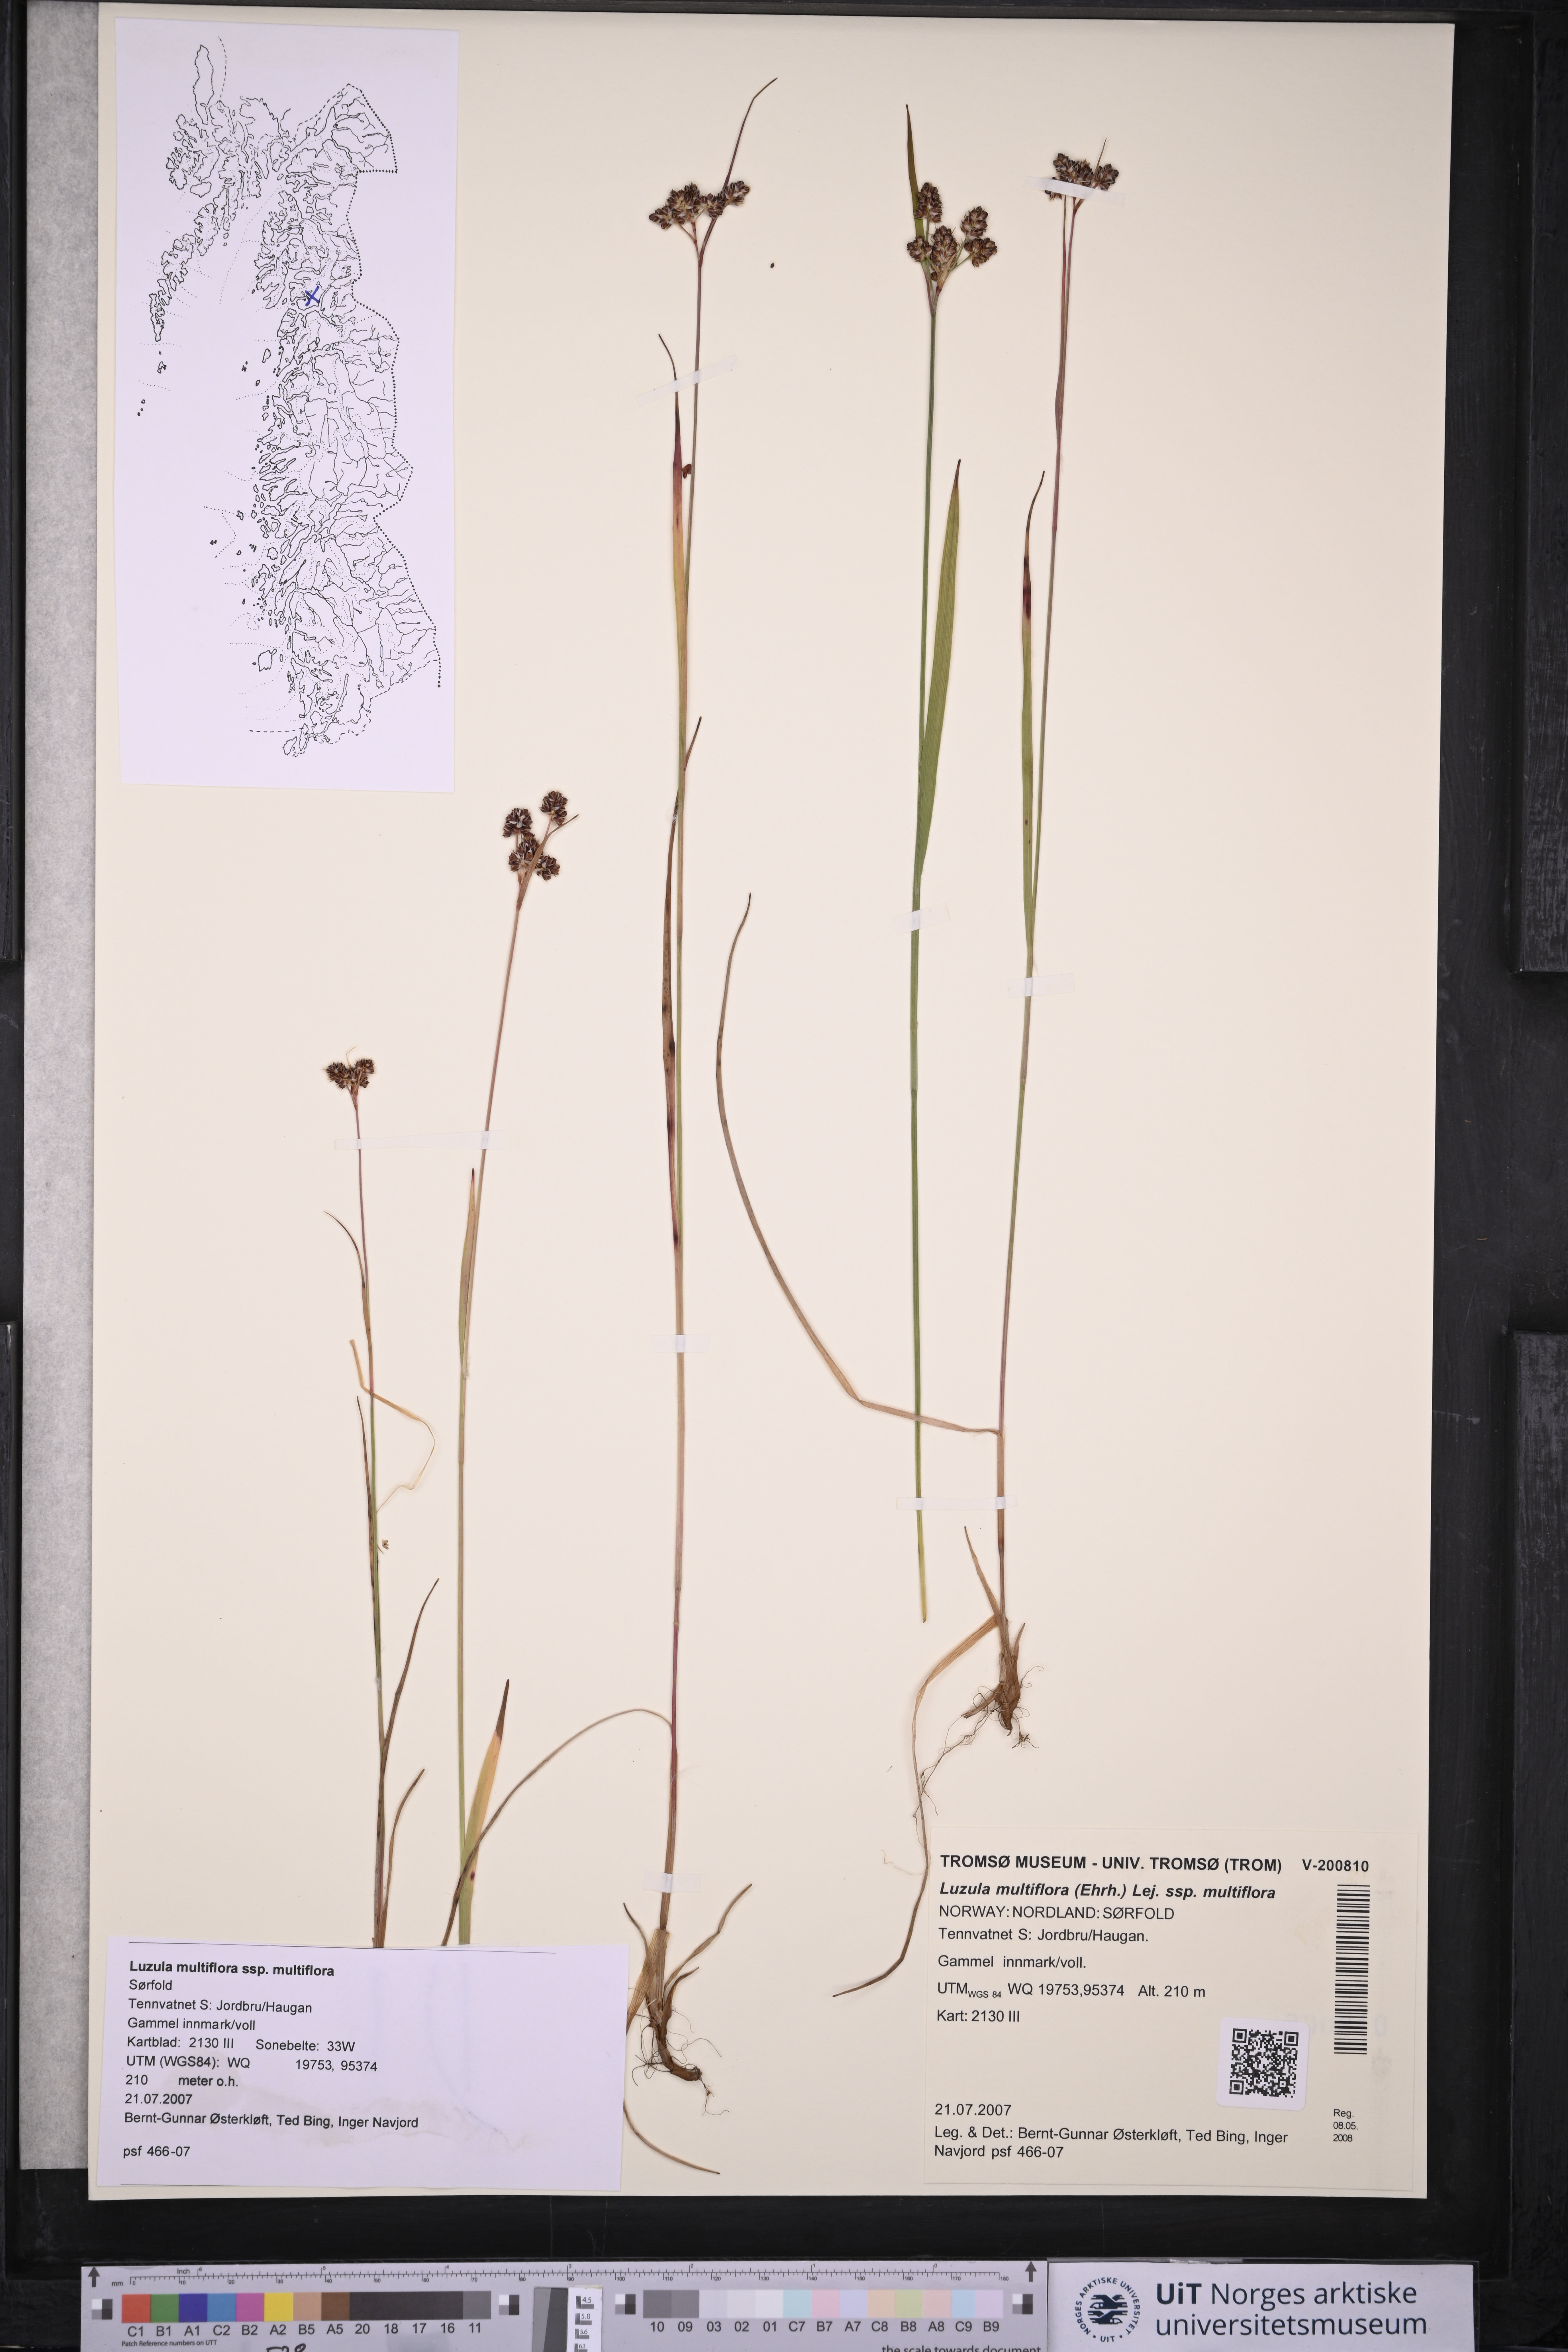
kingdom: Plantae
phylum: Tracheophyta
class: Liliopsida
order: Poales
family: Juncaceae
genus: Luzula
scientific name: Luzula multiflora
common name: Heath wood-rush
